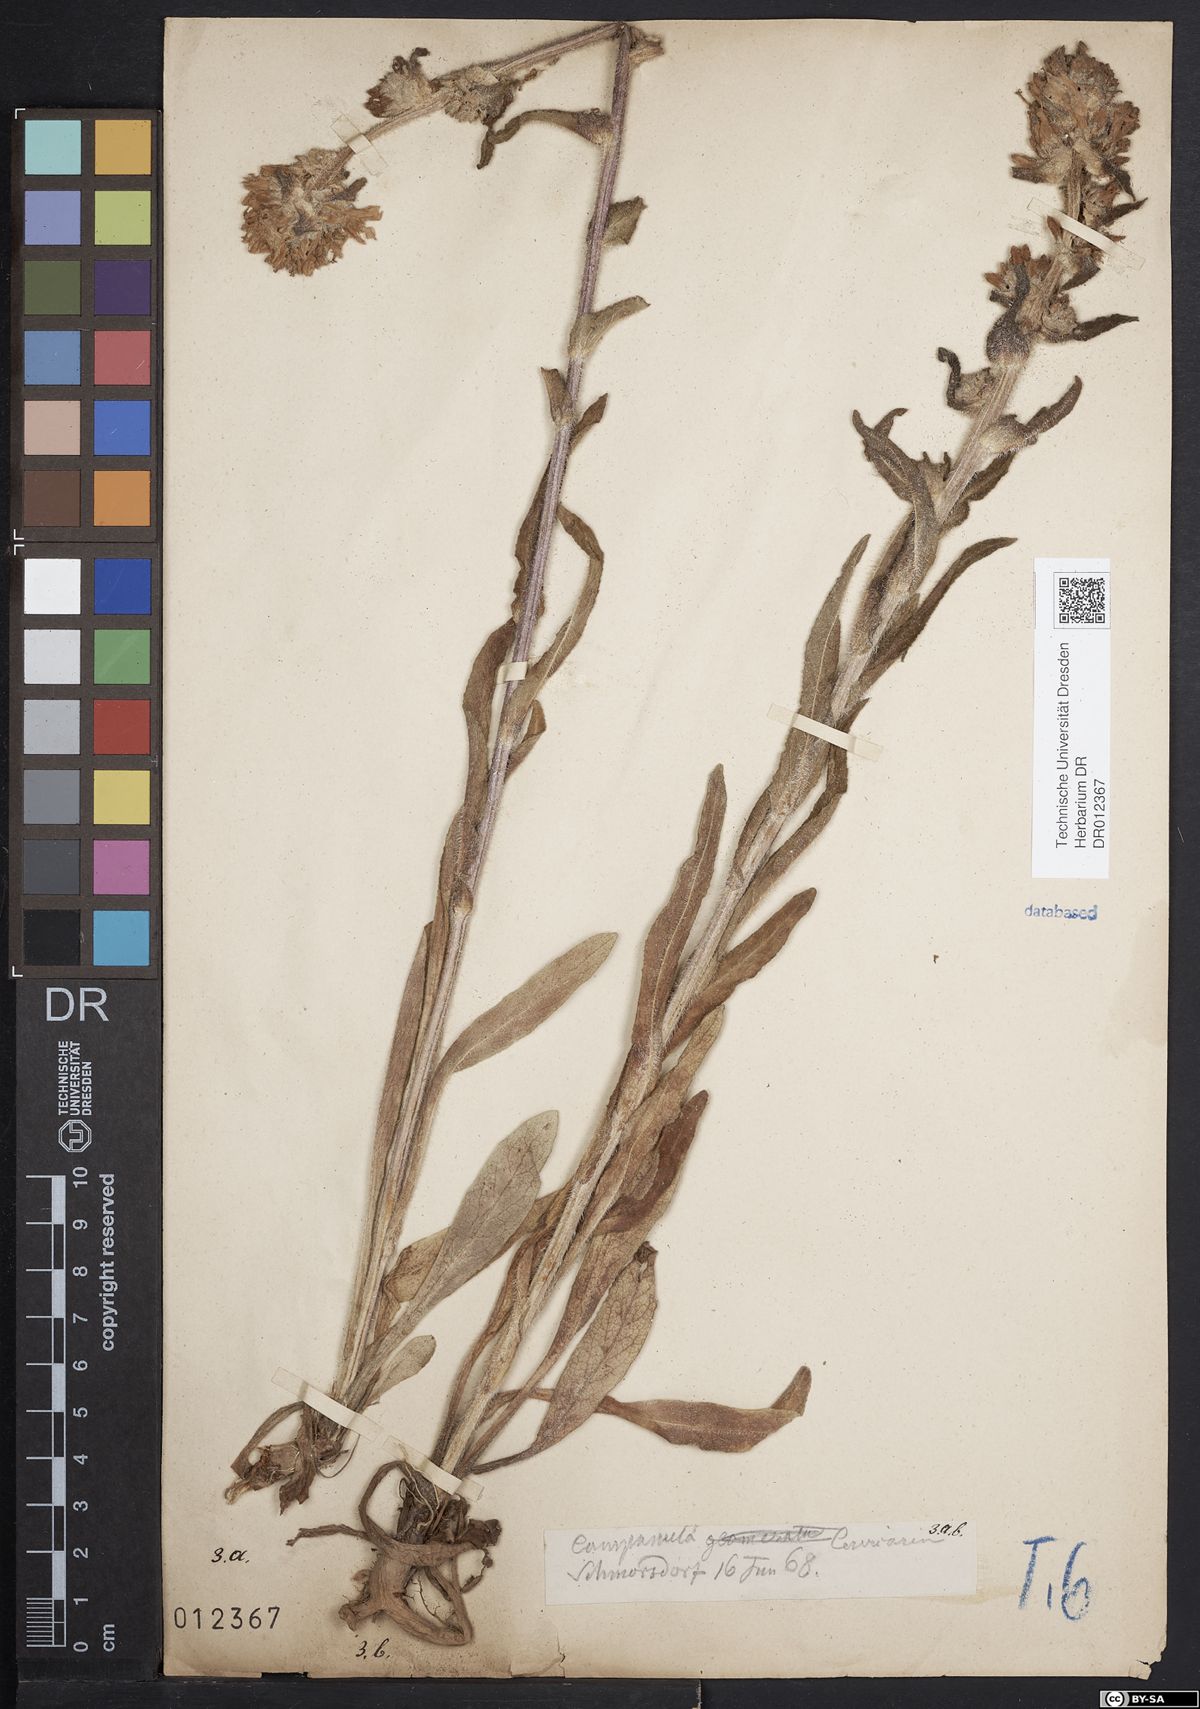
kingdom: Plantae
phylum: Tracheophyta
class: Magnoliopsida
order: Asterales
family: Campanulaceae
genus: Campanula
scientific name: Campanula cervicaria
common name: Bristly bellflower
